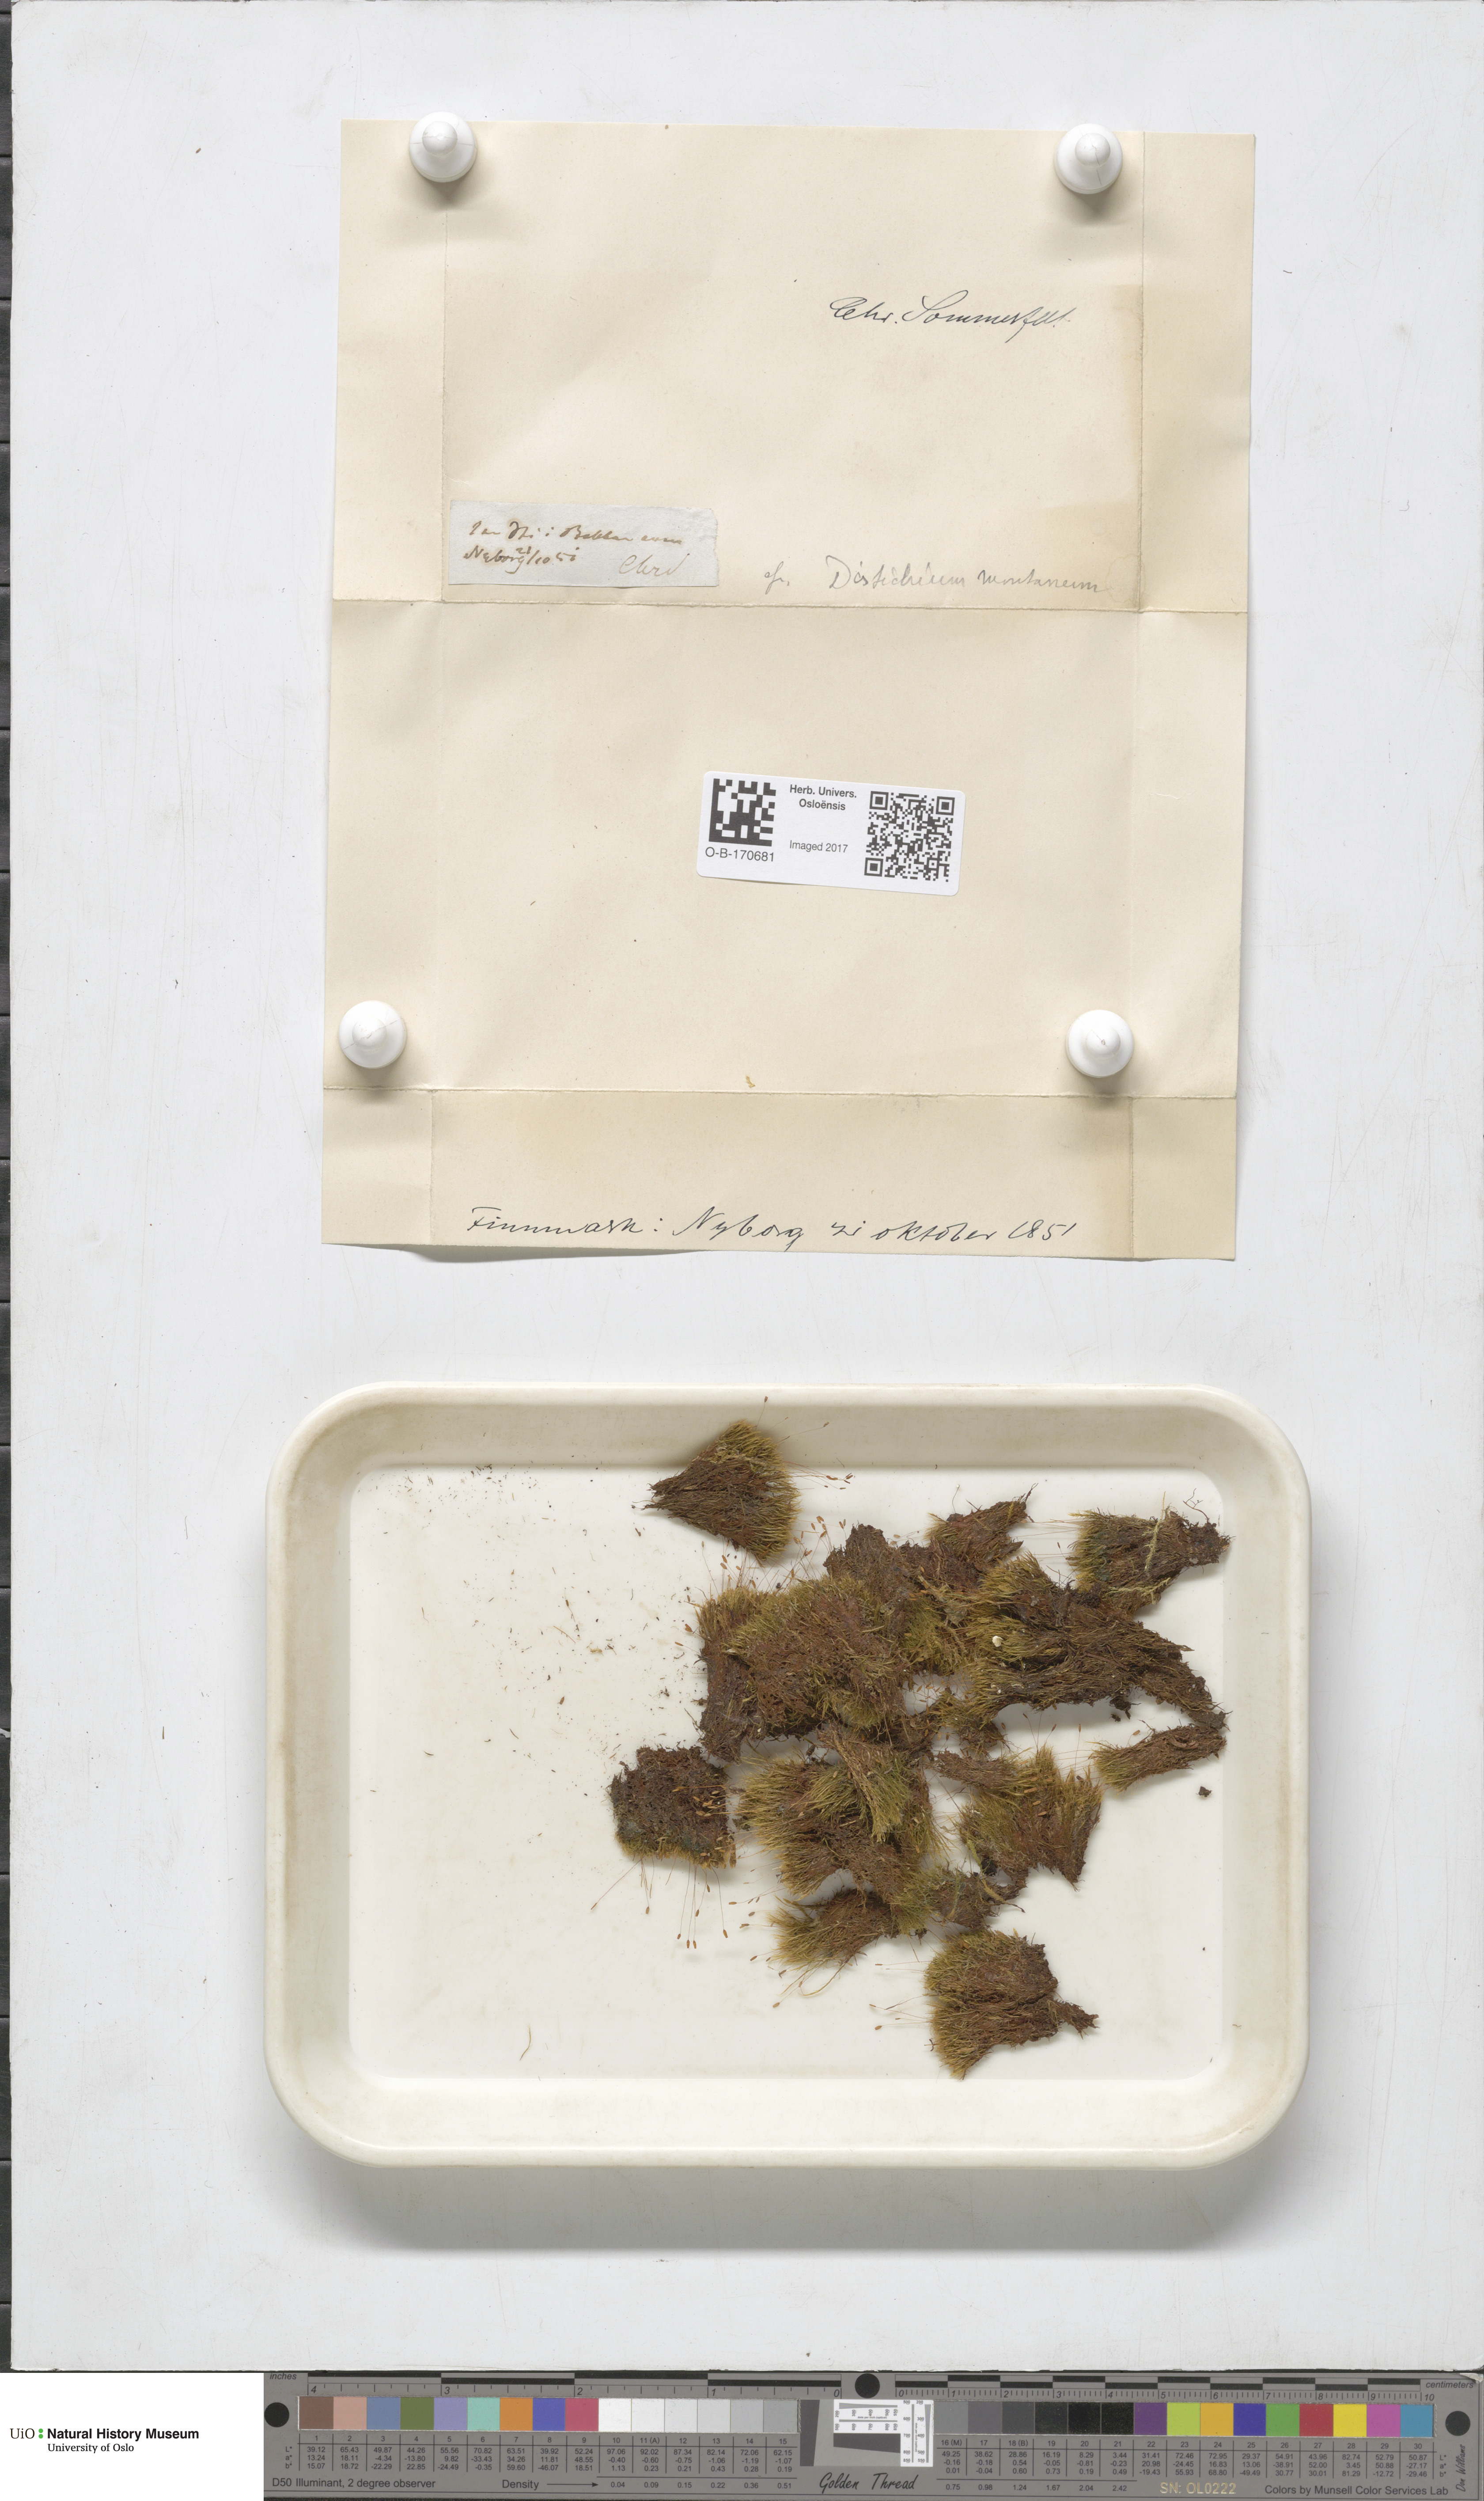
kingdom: Plantae
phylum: Bryophyta
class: Bryopsida
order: Scouleriales
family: Distichiaceae
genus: Distichium
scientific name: Distichium capillaceum
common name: Erect-fruited iris moss
